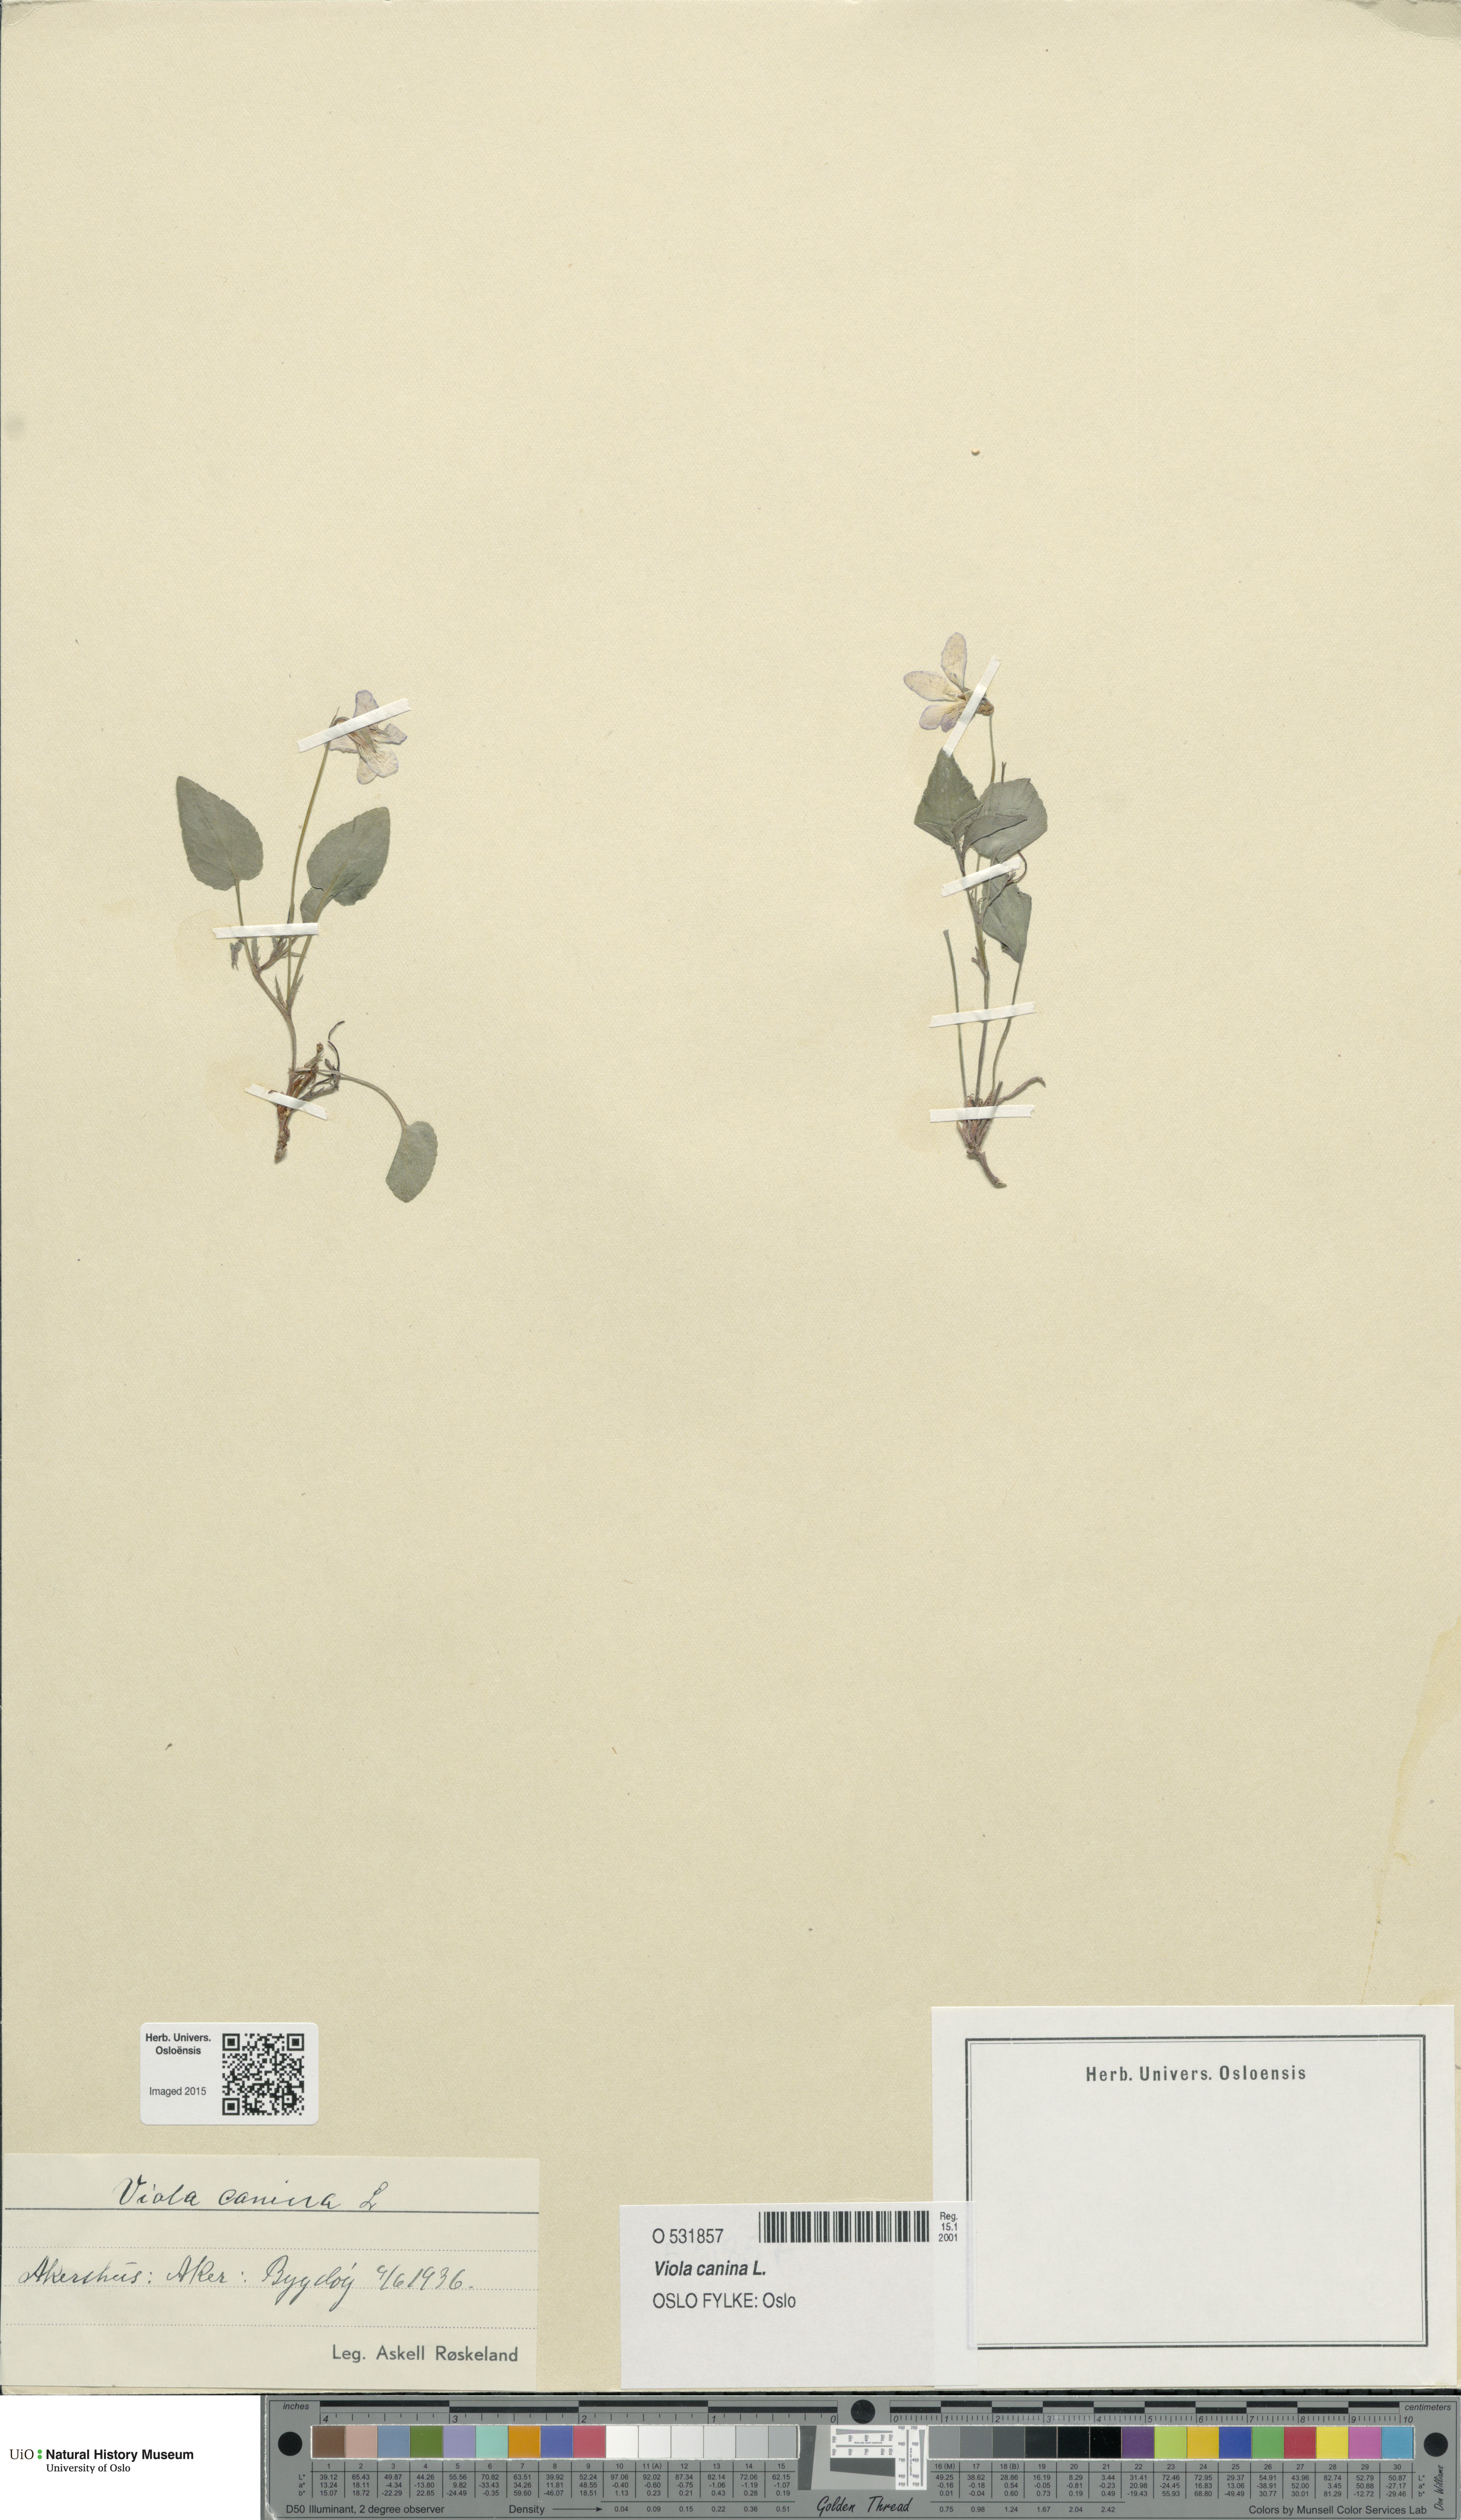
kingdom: Plantae
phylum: Tracheophyta
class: Magnoliopsida
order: Malpighiales
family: Violaceae
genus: Viola
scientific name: Viola canina
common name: Heath dog-violet
